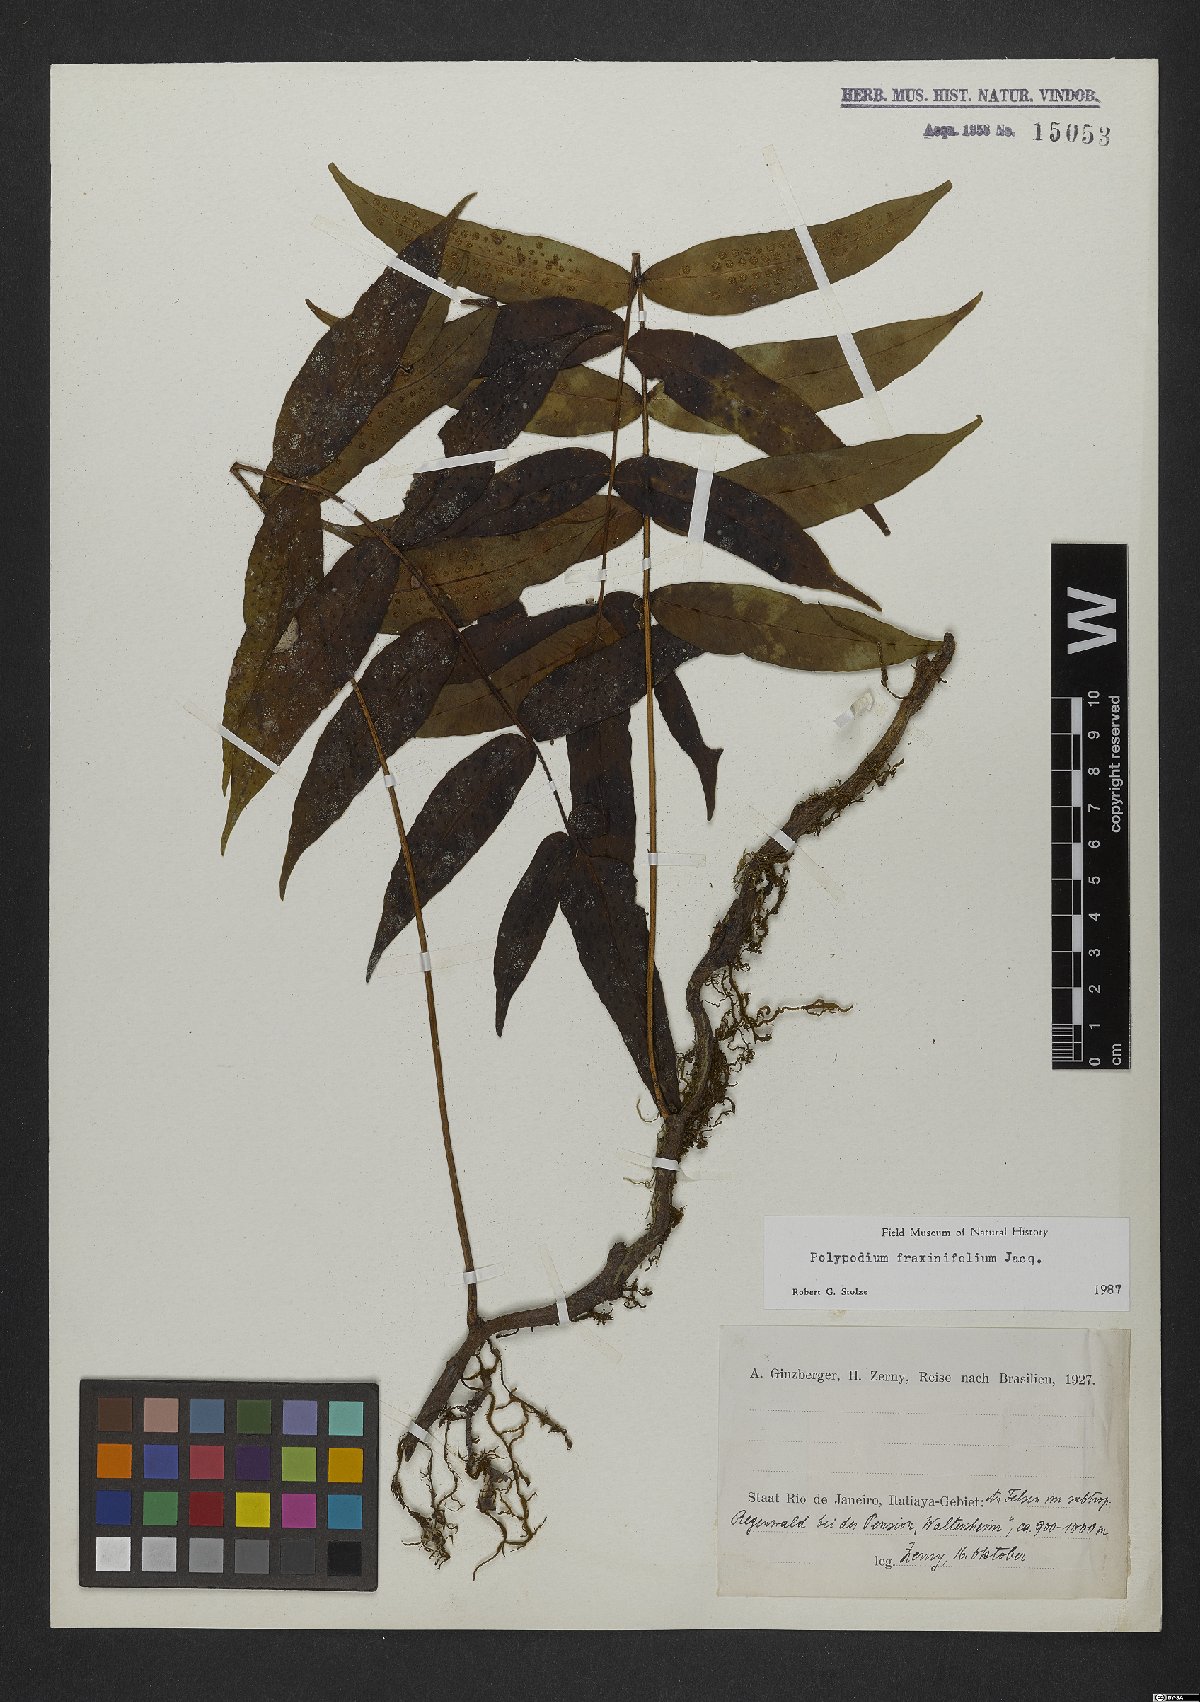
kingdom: Plantae
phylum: Tracheophyta
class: Polypodiopsida
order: Polypodiales
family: Polypodiaceae
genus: Serpocaulon
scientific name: Serpocaulon fraxinifolium
